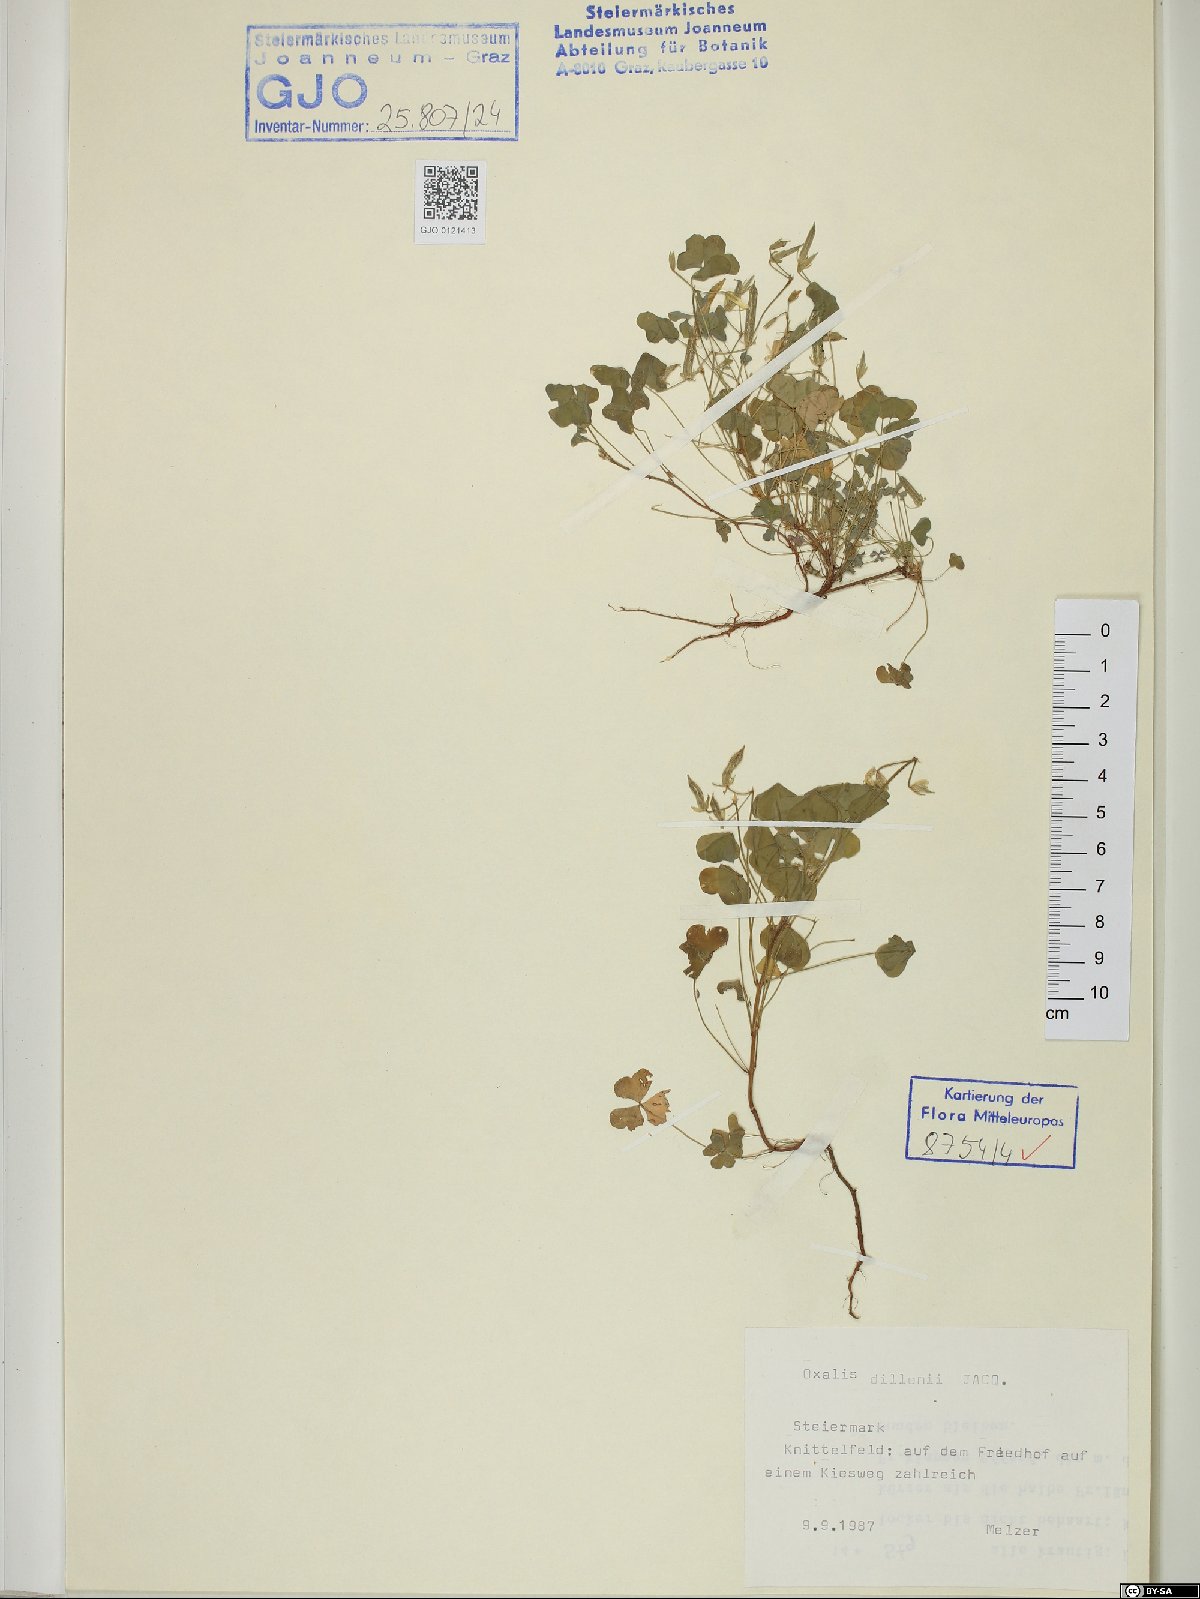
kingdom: Plantae
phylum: Tracheophyta
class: Magnoliopsida
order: Oxalidales
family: Oxalidaceae
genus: Oxalis
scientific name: Oxalis dillenii
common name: Sussex yellow-sorrel
